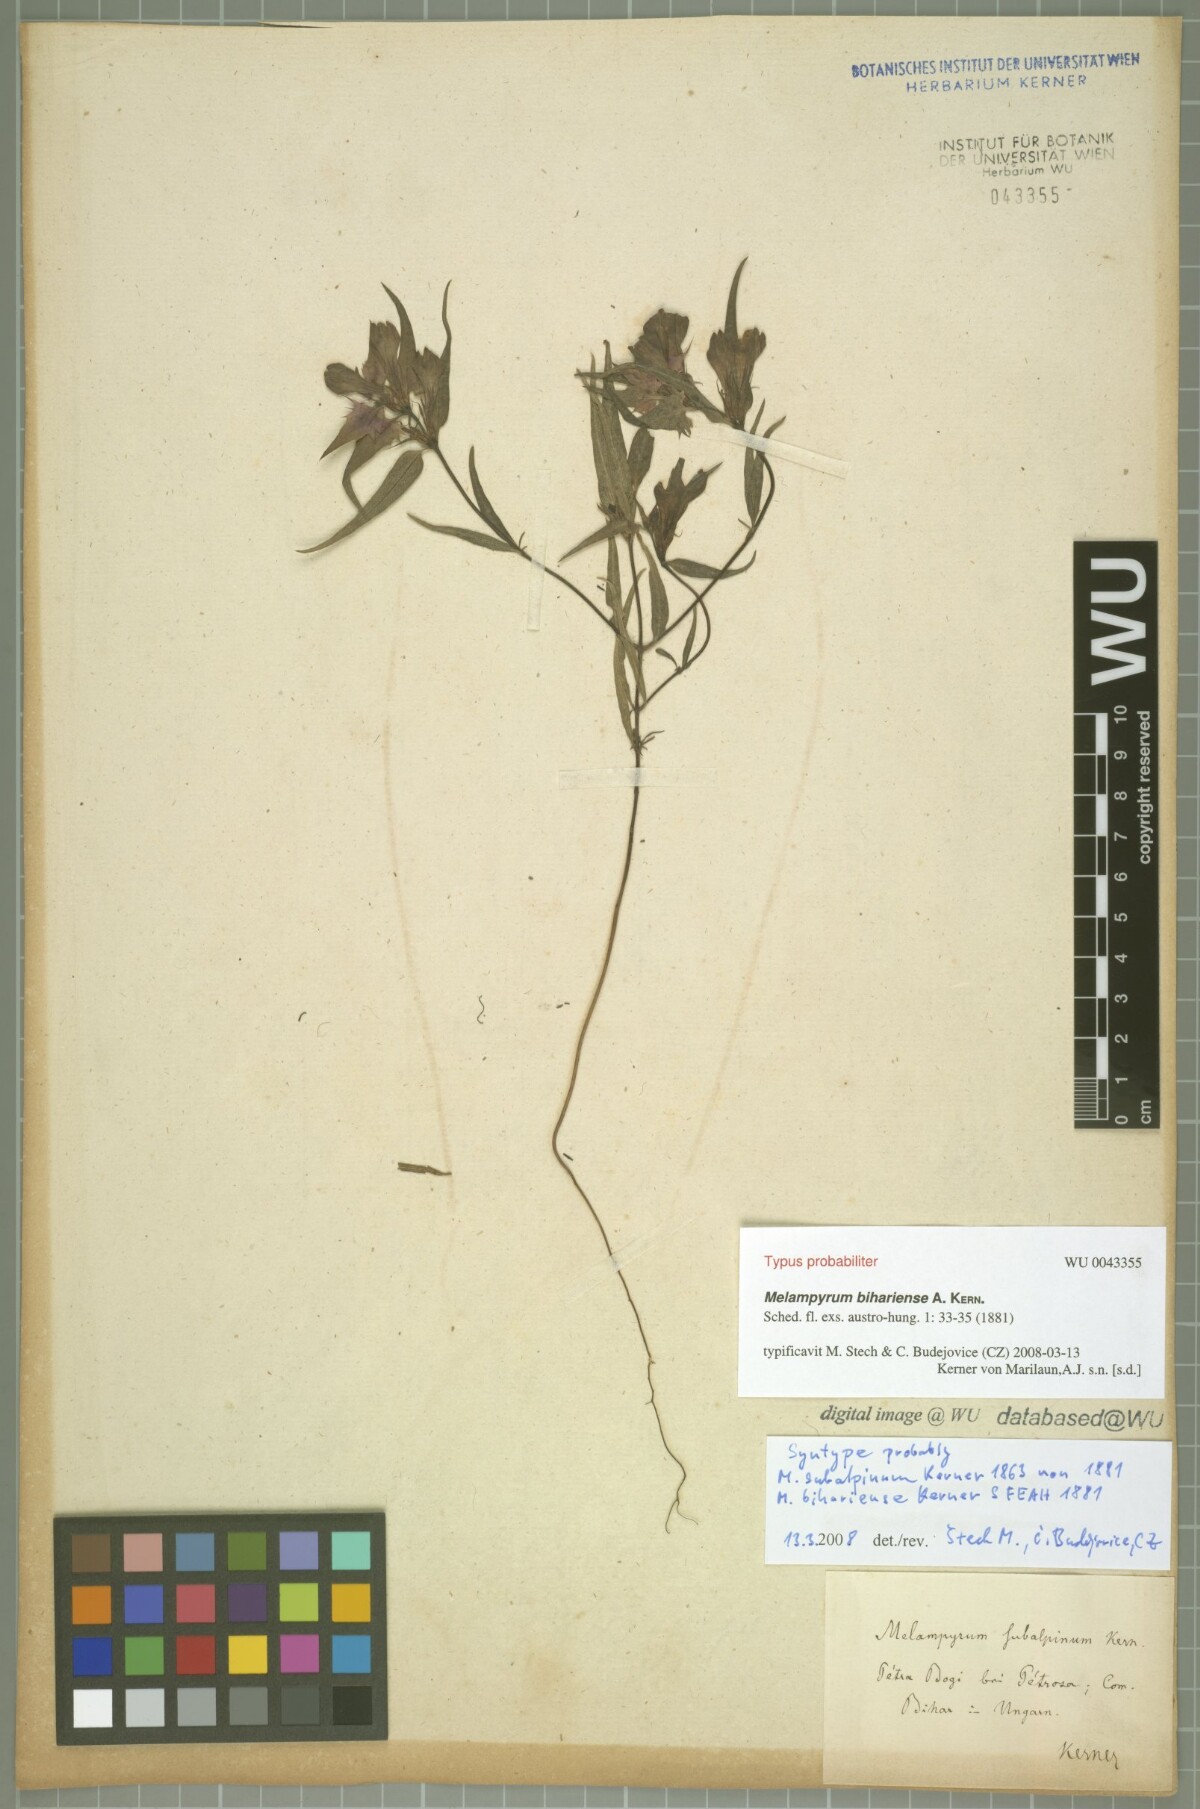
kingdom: Plantae
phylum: Tracheophyta
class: Magnoliopsida
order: Lamiales
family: Orobanchaceae
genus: Melampyrum
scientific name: Melampyrum bihariense
